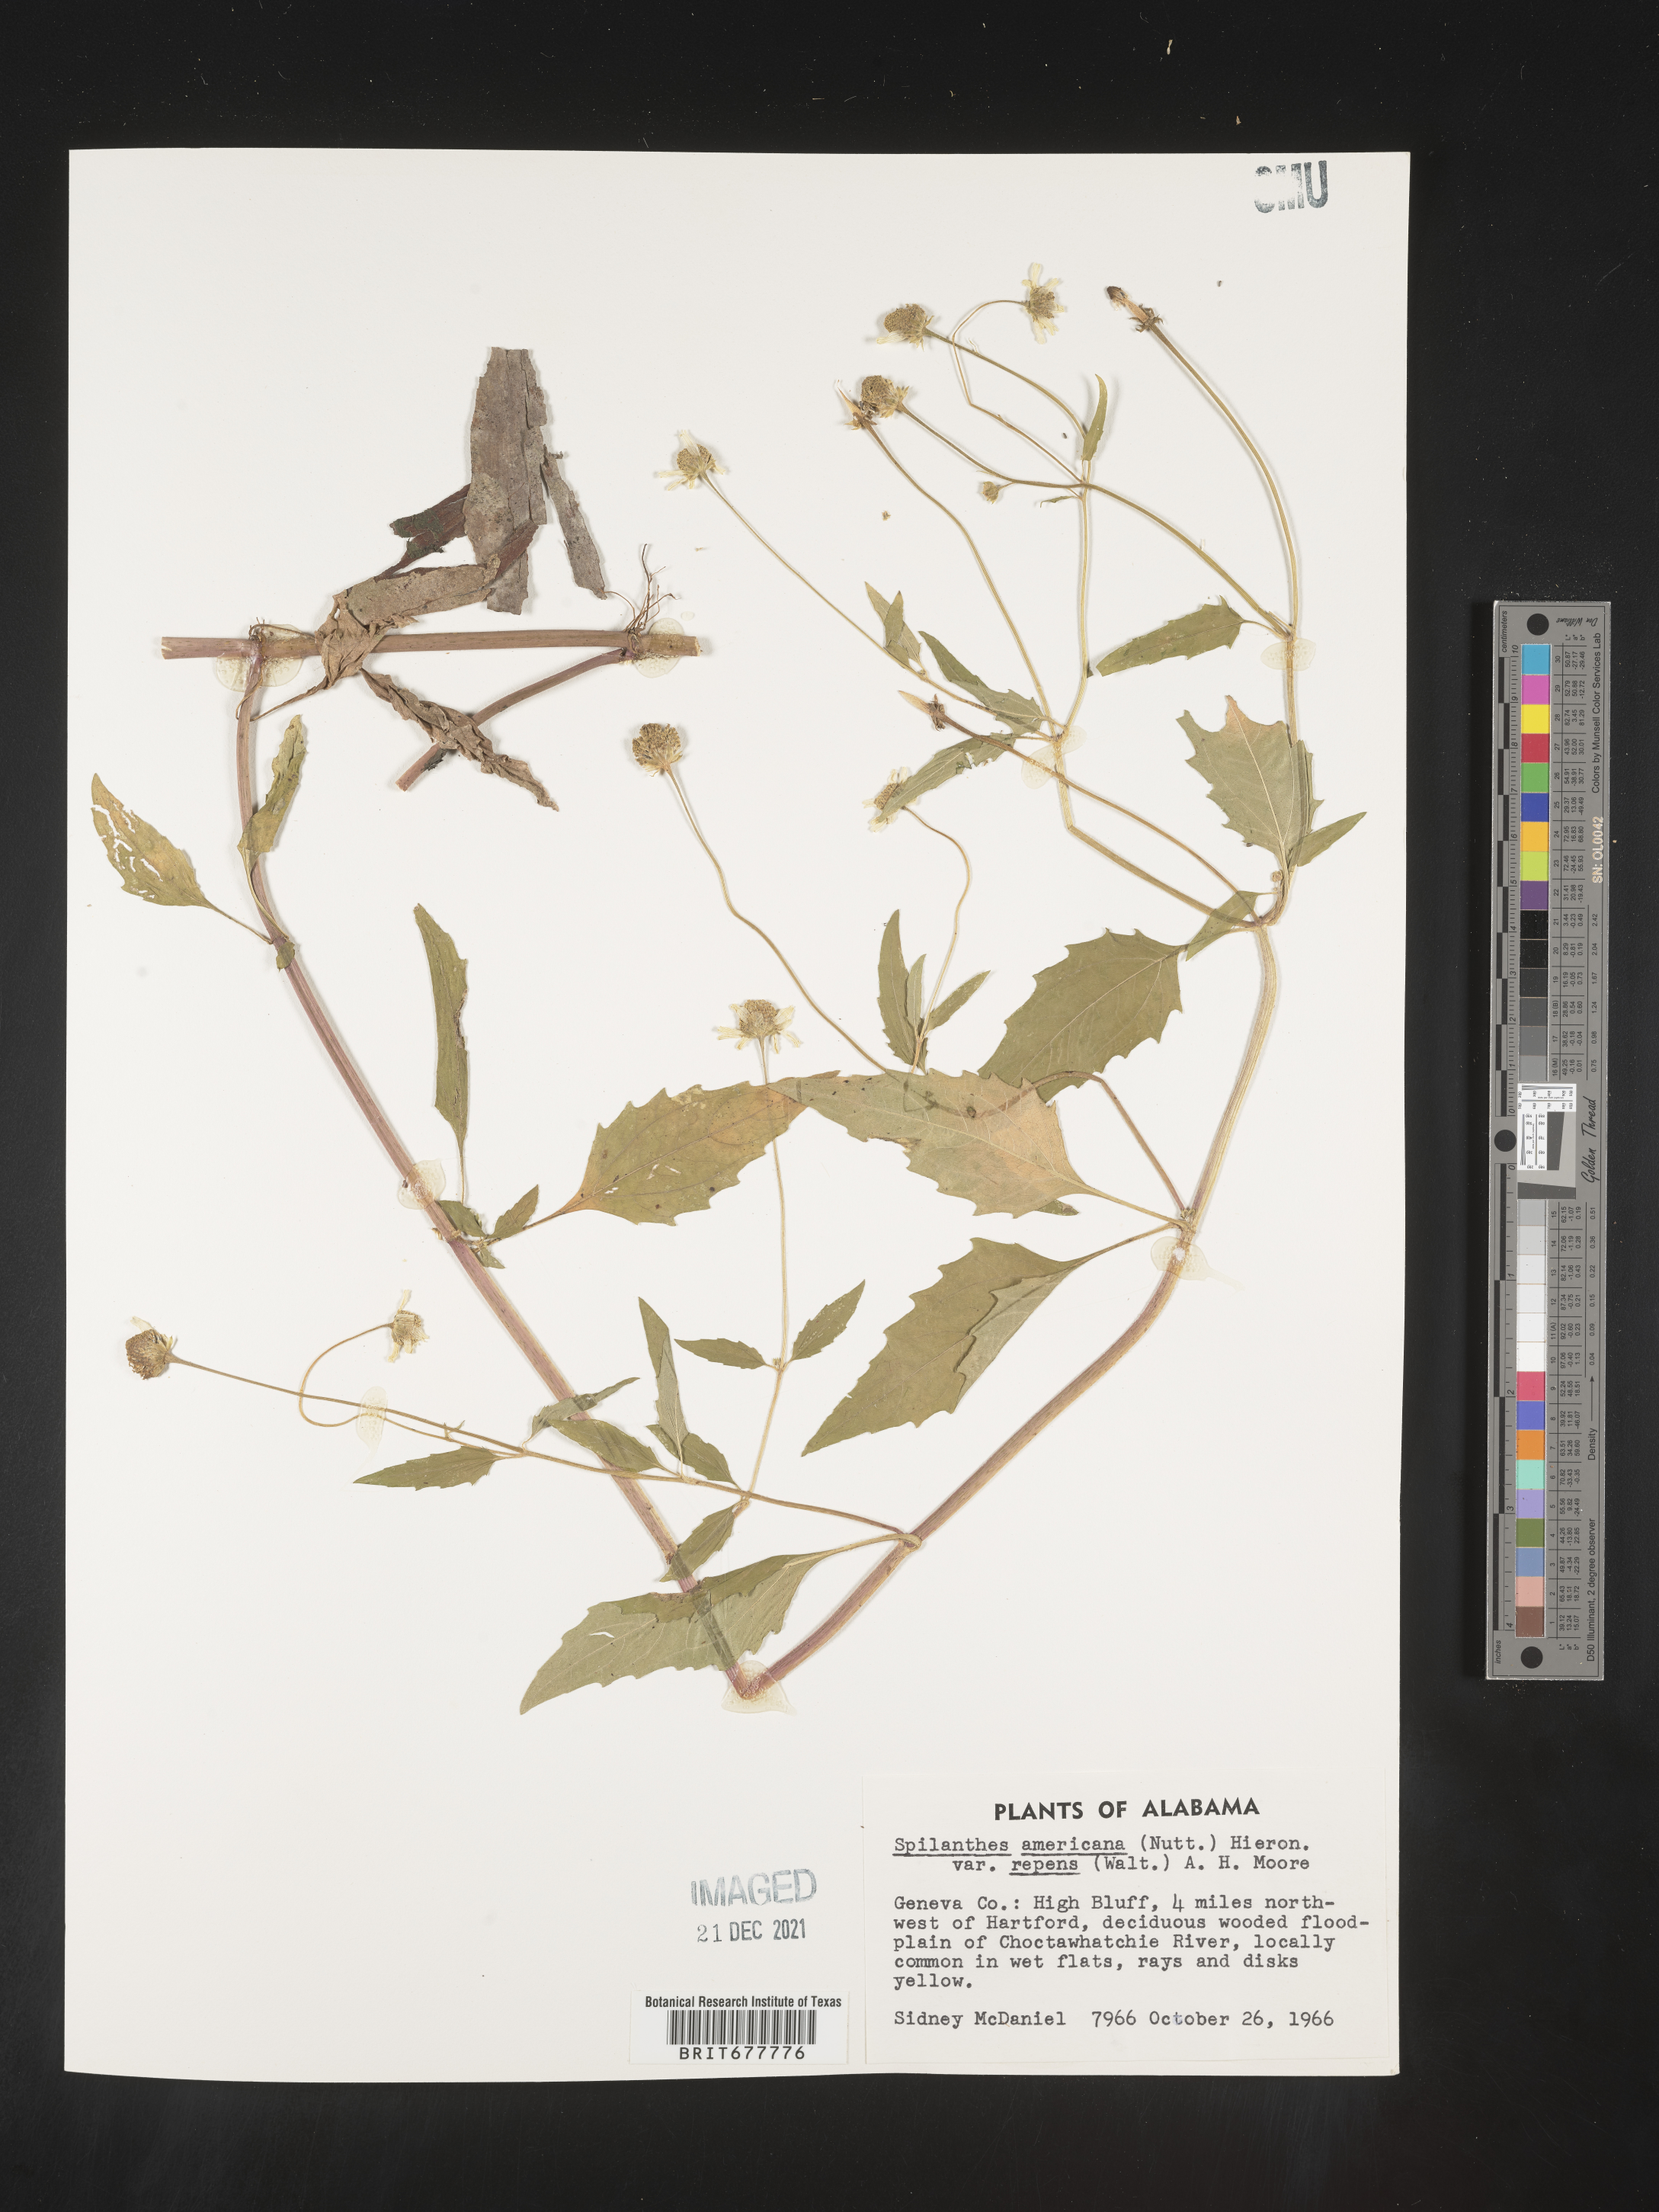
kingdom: Plantae
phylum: Tracheophyta
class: Magnoliopsida
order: Asterales
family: Asteraceae
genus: Spilanthes
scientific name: Spilanthes
